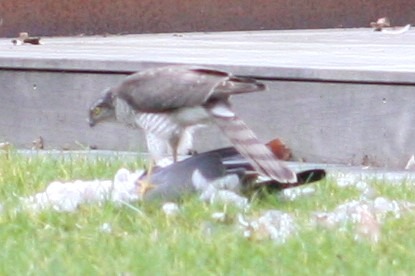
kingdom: Animalia
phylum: Chordata
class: Aves
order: Accipitriformes
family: Accipitridae
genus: Accipiter
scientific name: Accipiter nisus
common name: Spurvehøg
